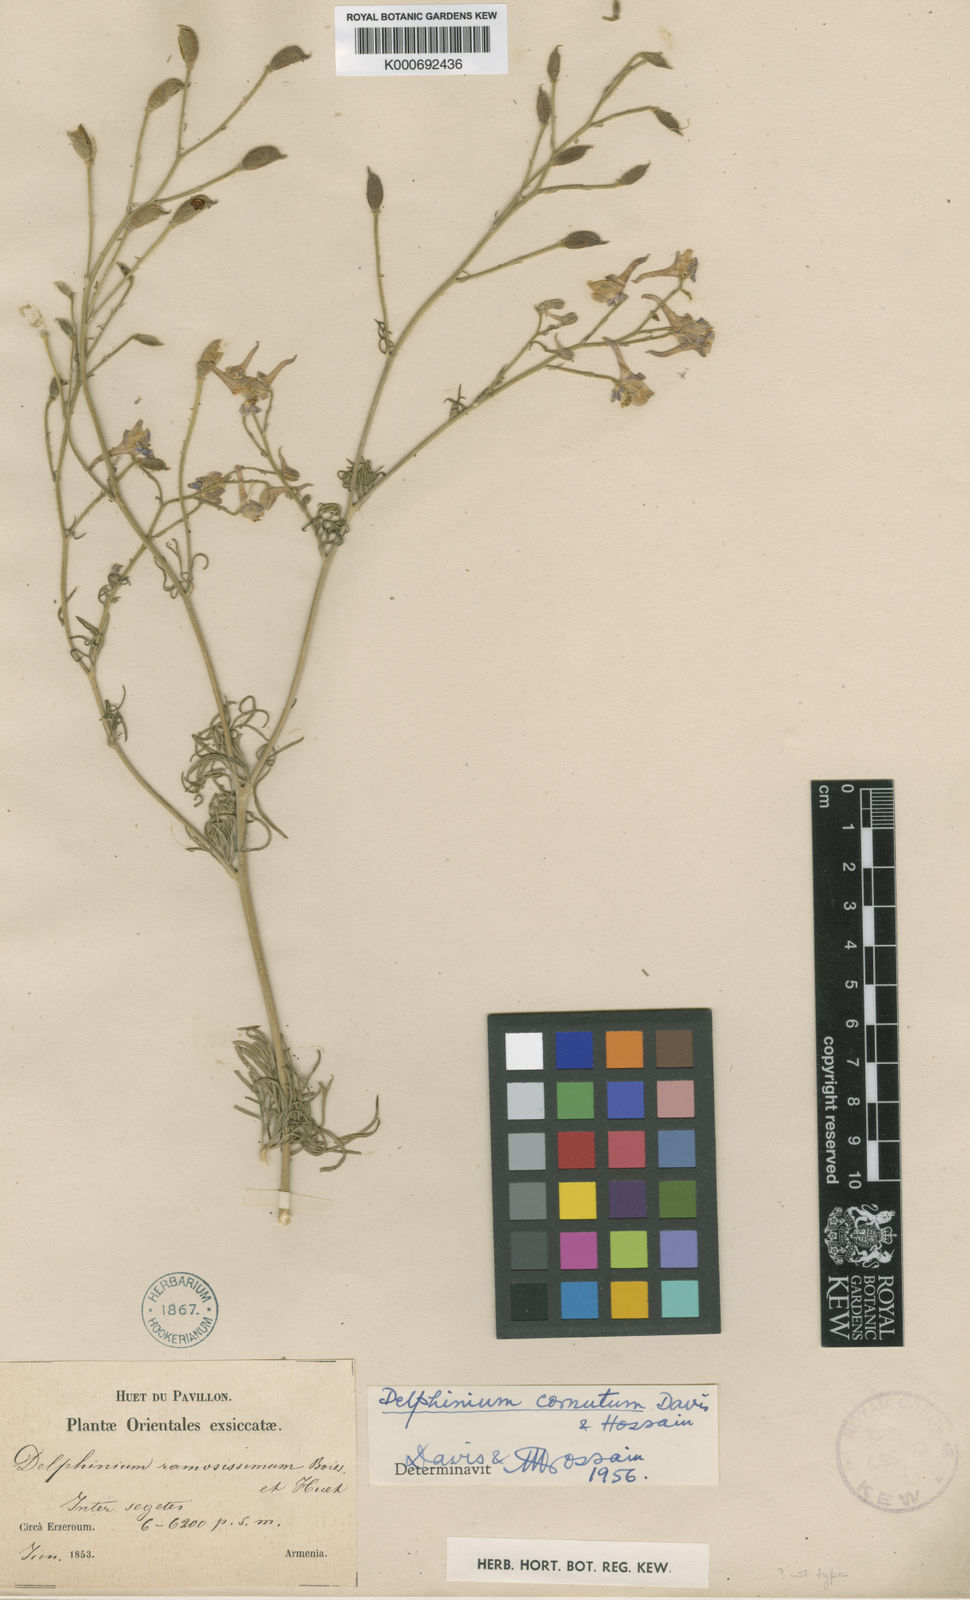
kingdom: Plantae
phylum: Tracheophyta
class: Magnoliopsida
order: Ranunculales
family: Ranunculaceae
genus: Delphinium
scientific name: Delphinium cornutum
